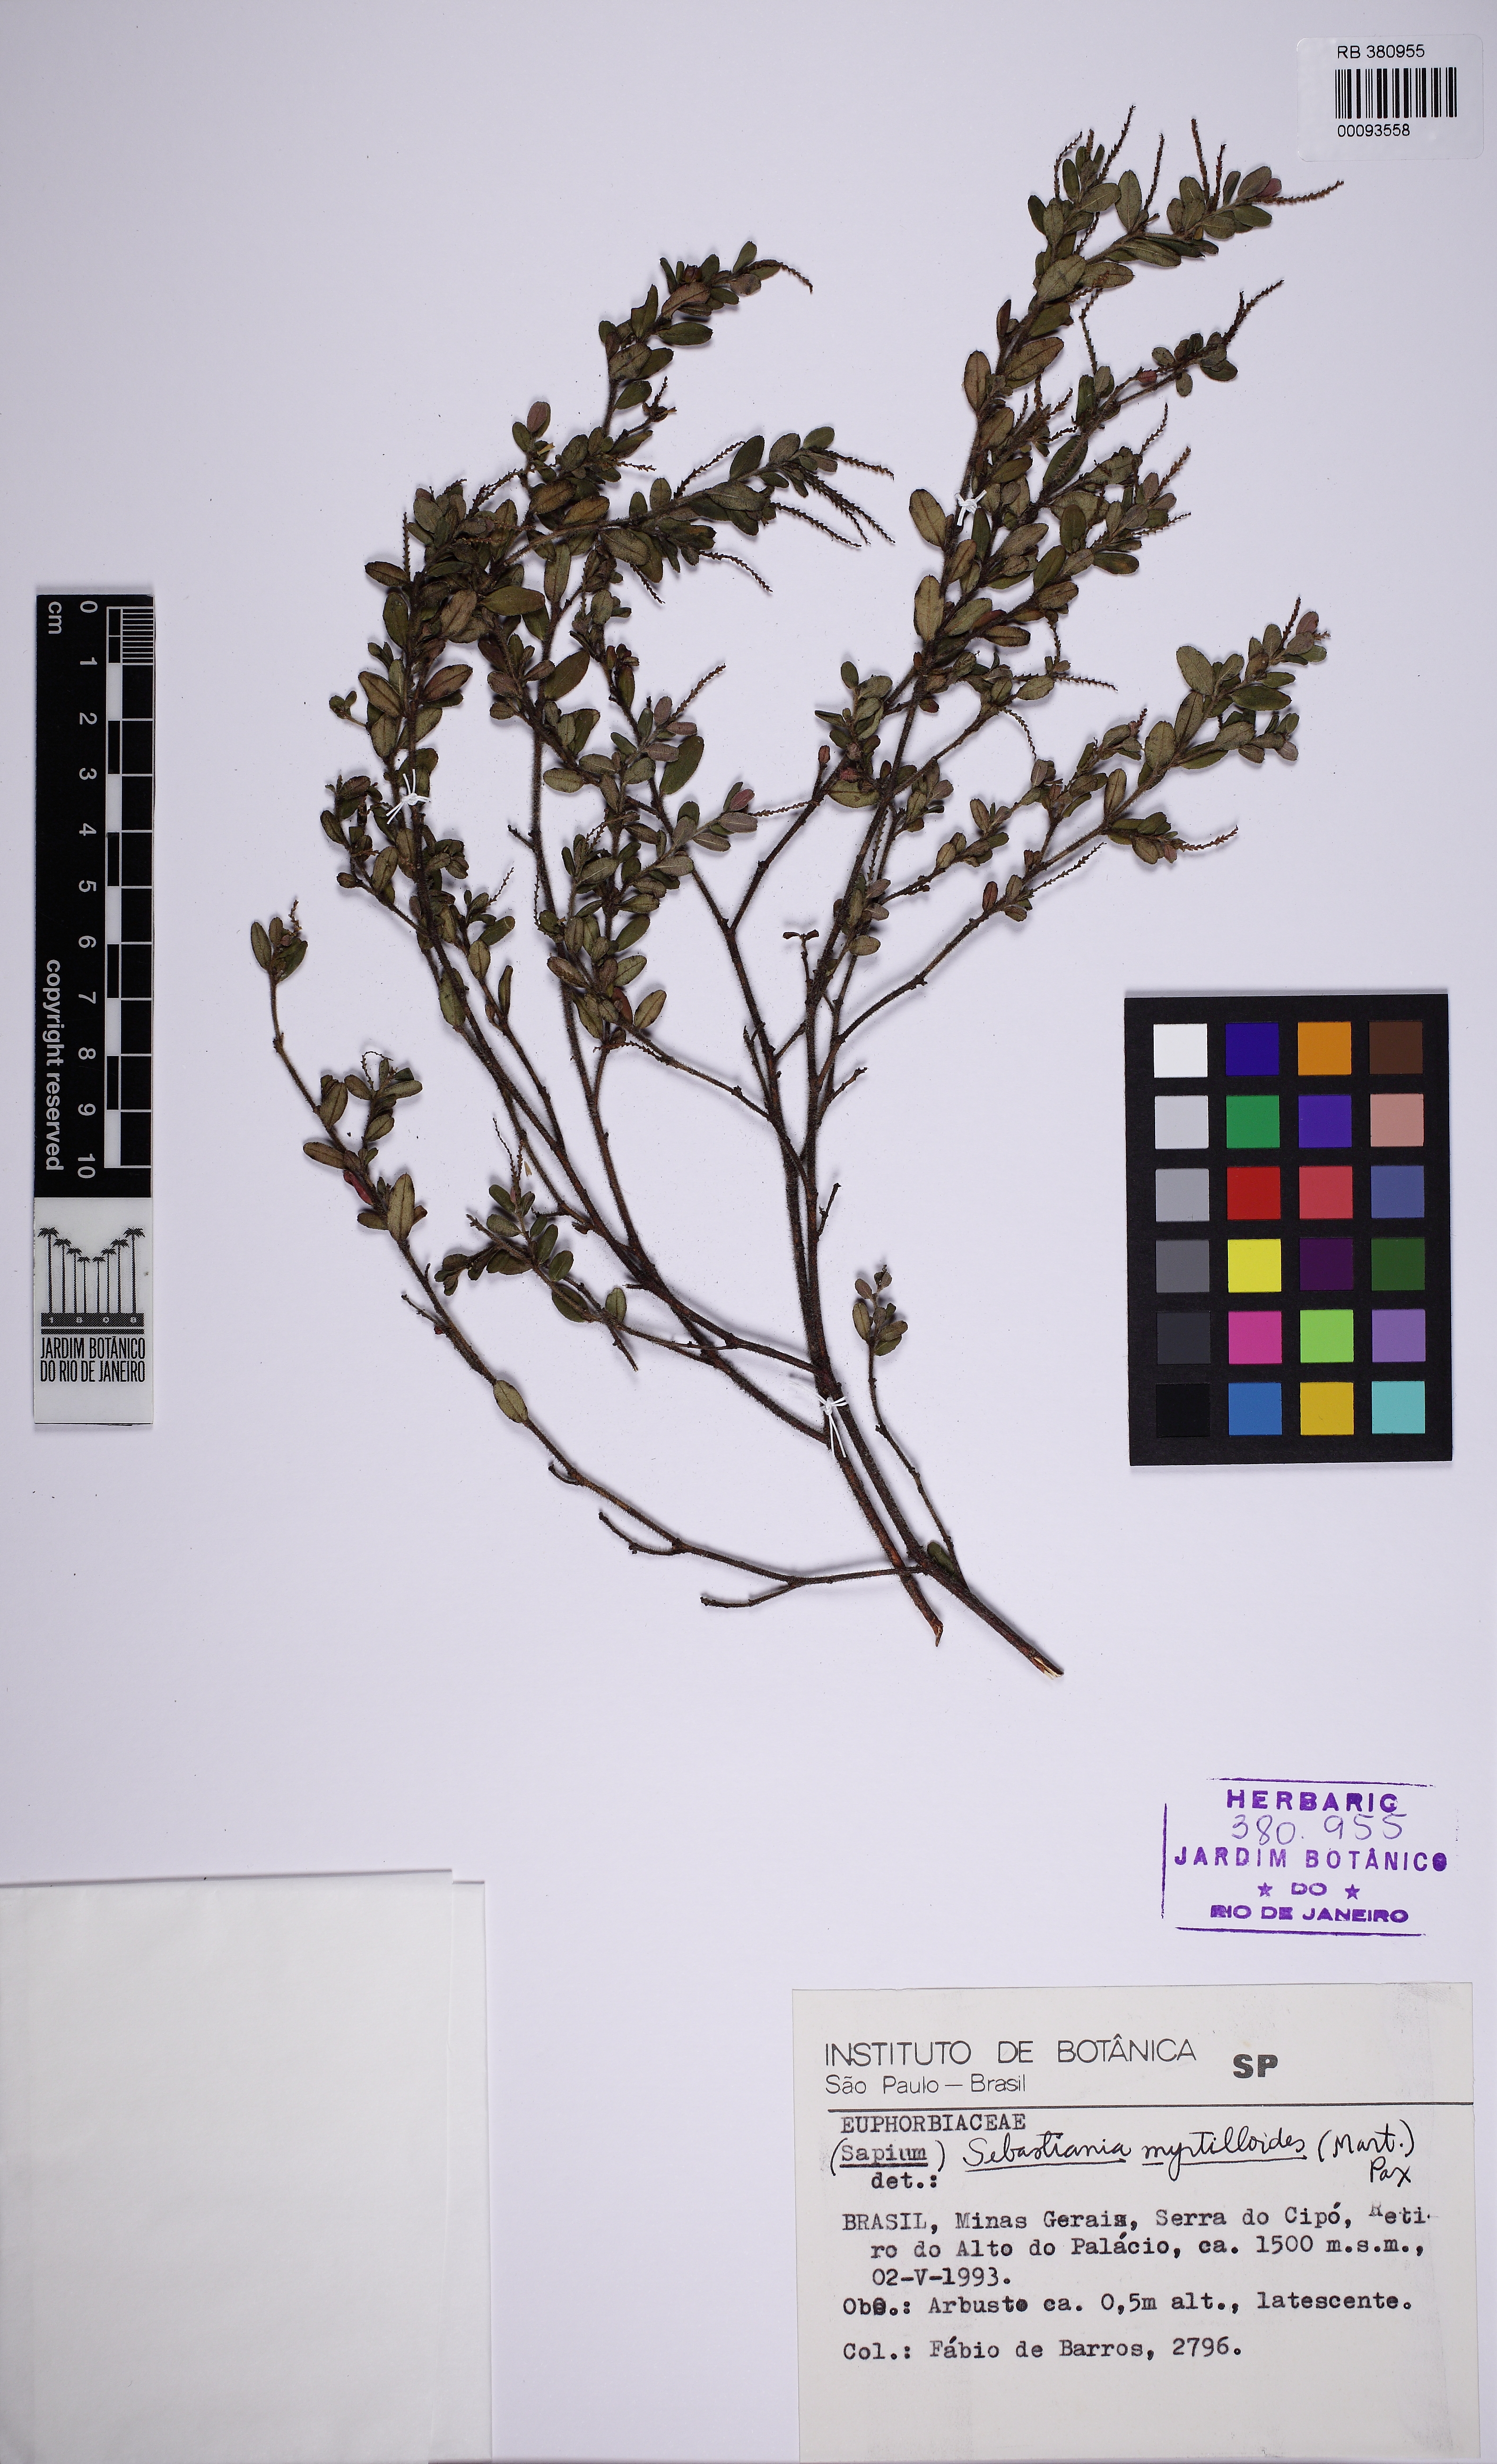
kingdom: Plantae
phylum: Tracheophyta
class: Magnoliopsida
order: Malpighiales
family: Euphorbiaceae
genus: Microstachys
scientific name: Microstachys daphnoides
